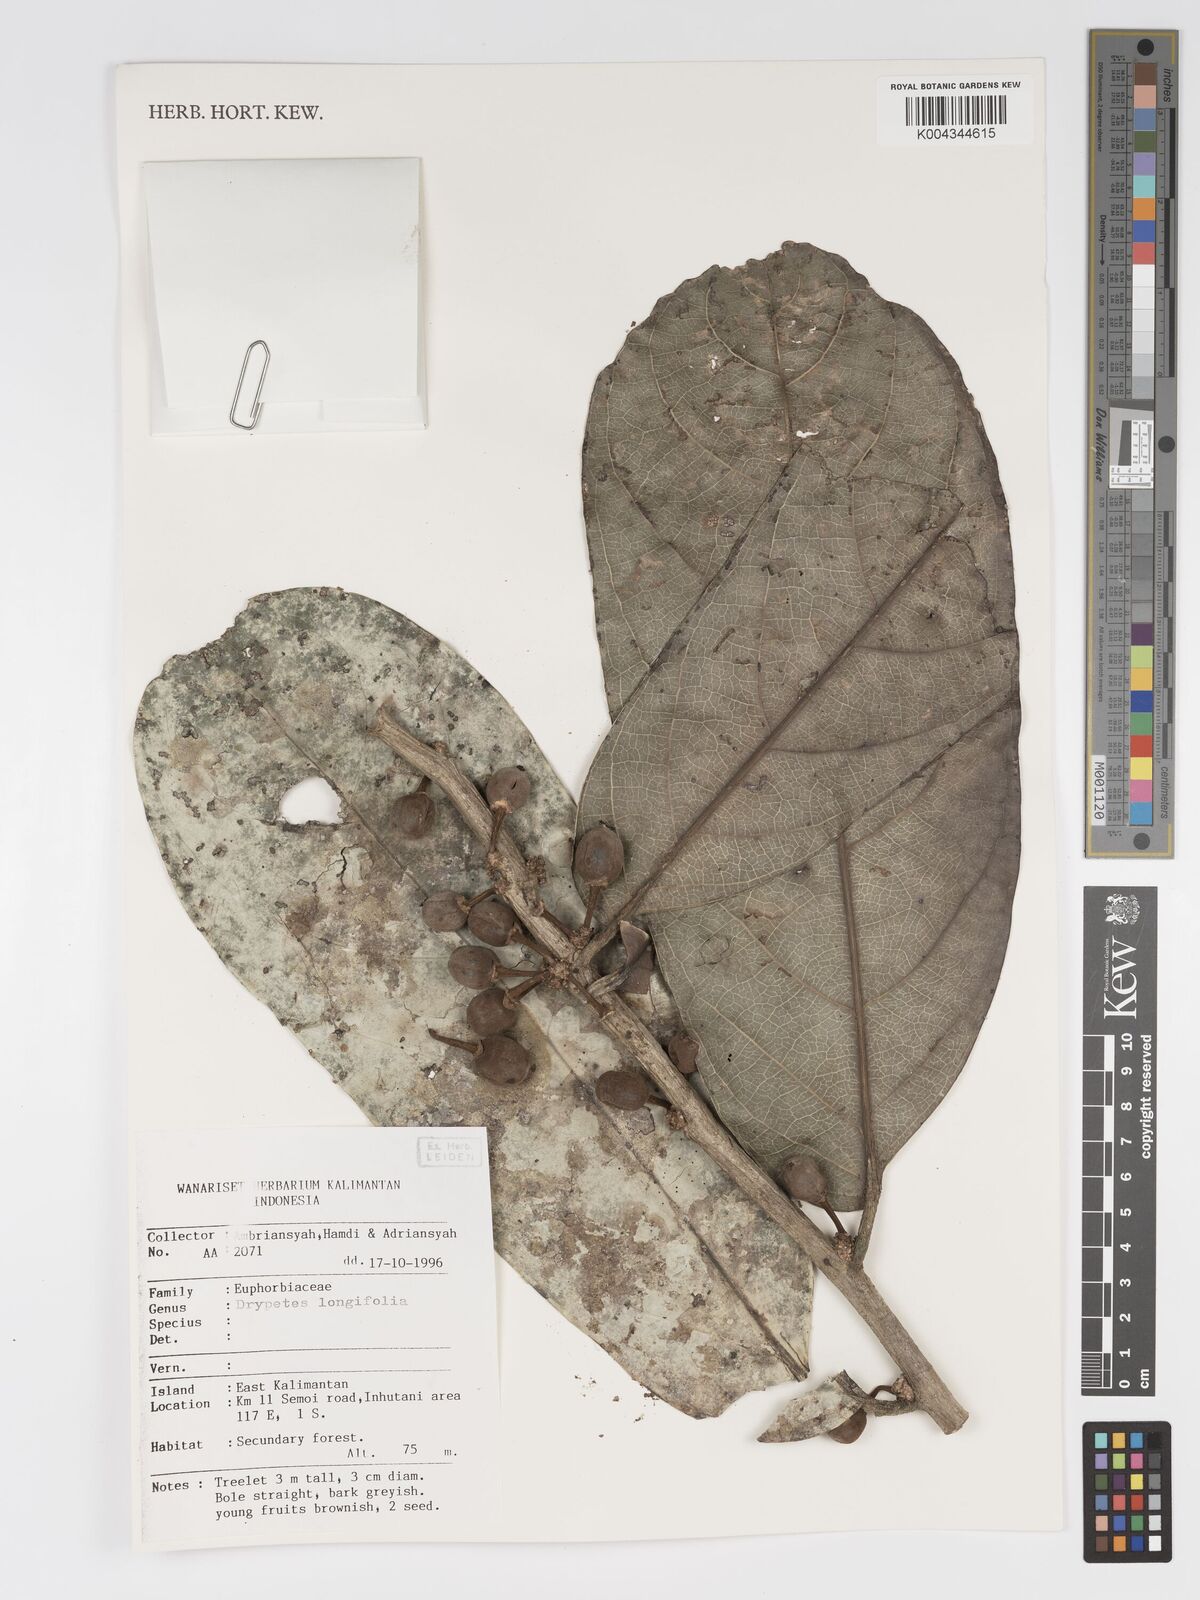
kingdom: Plantae
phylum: Tracheophyta
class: Magnoliopsida
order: Malpighiales
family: Putranjivaceae
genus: Drypetes
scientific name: Drypetes longifolia
